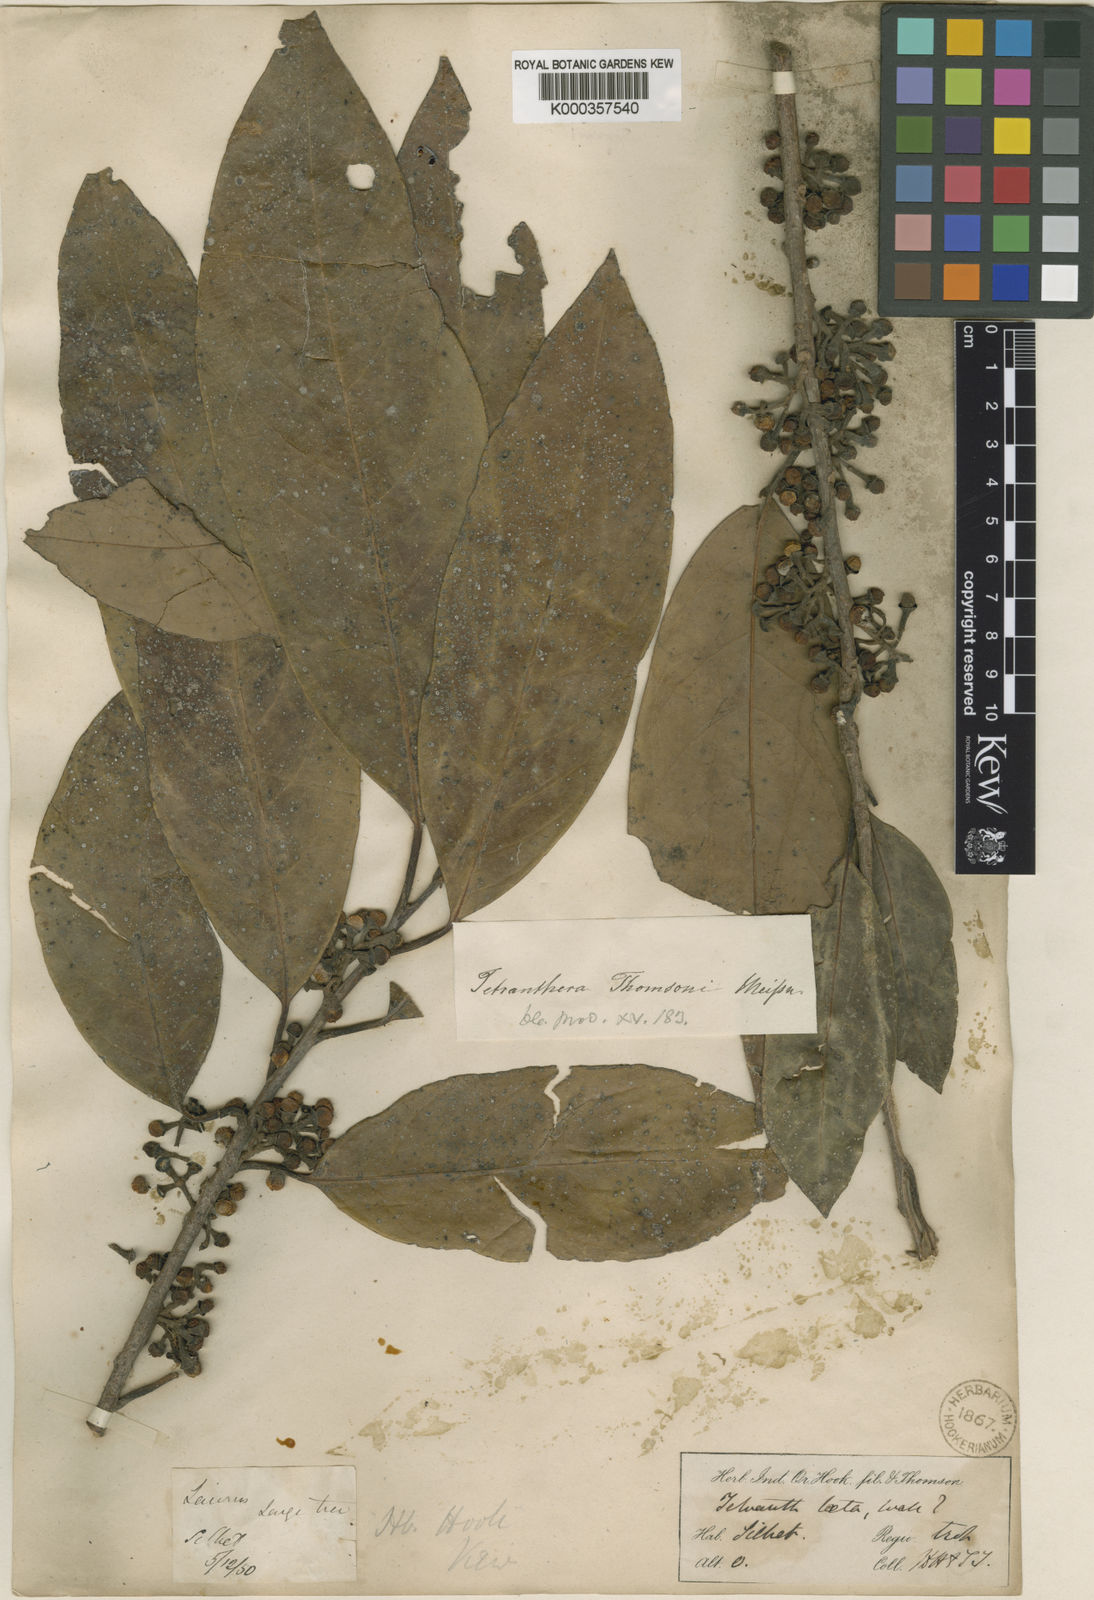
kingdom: Plantae
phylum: Tracheophyta
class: Magnoliopsida
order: Laurales
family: Lauraceae
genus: Litsea
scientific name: Litsea thomsonii
